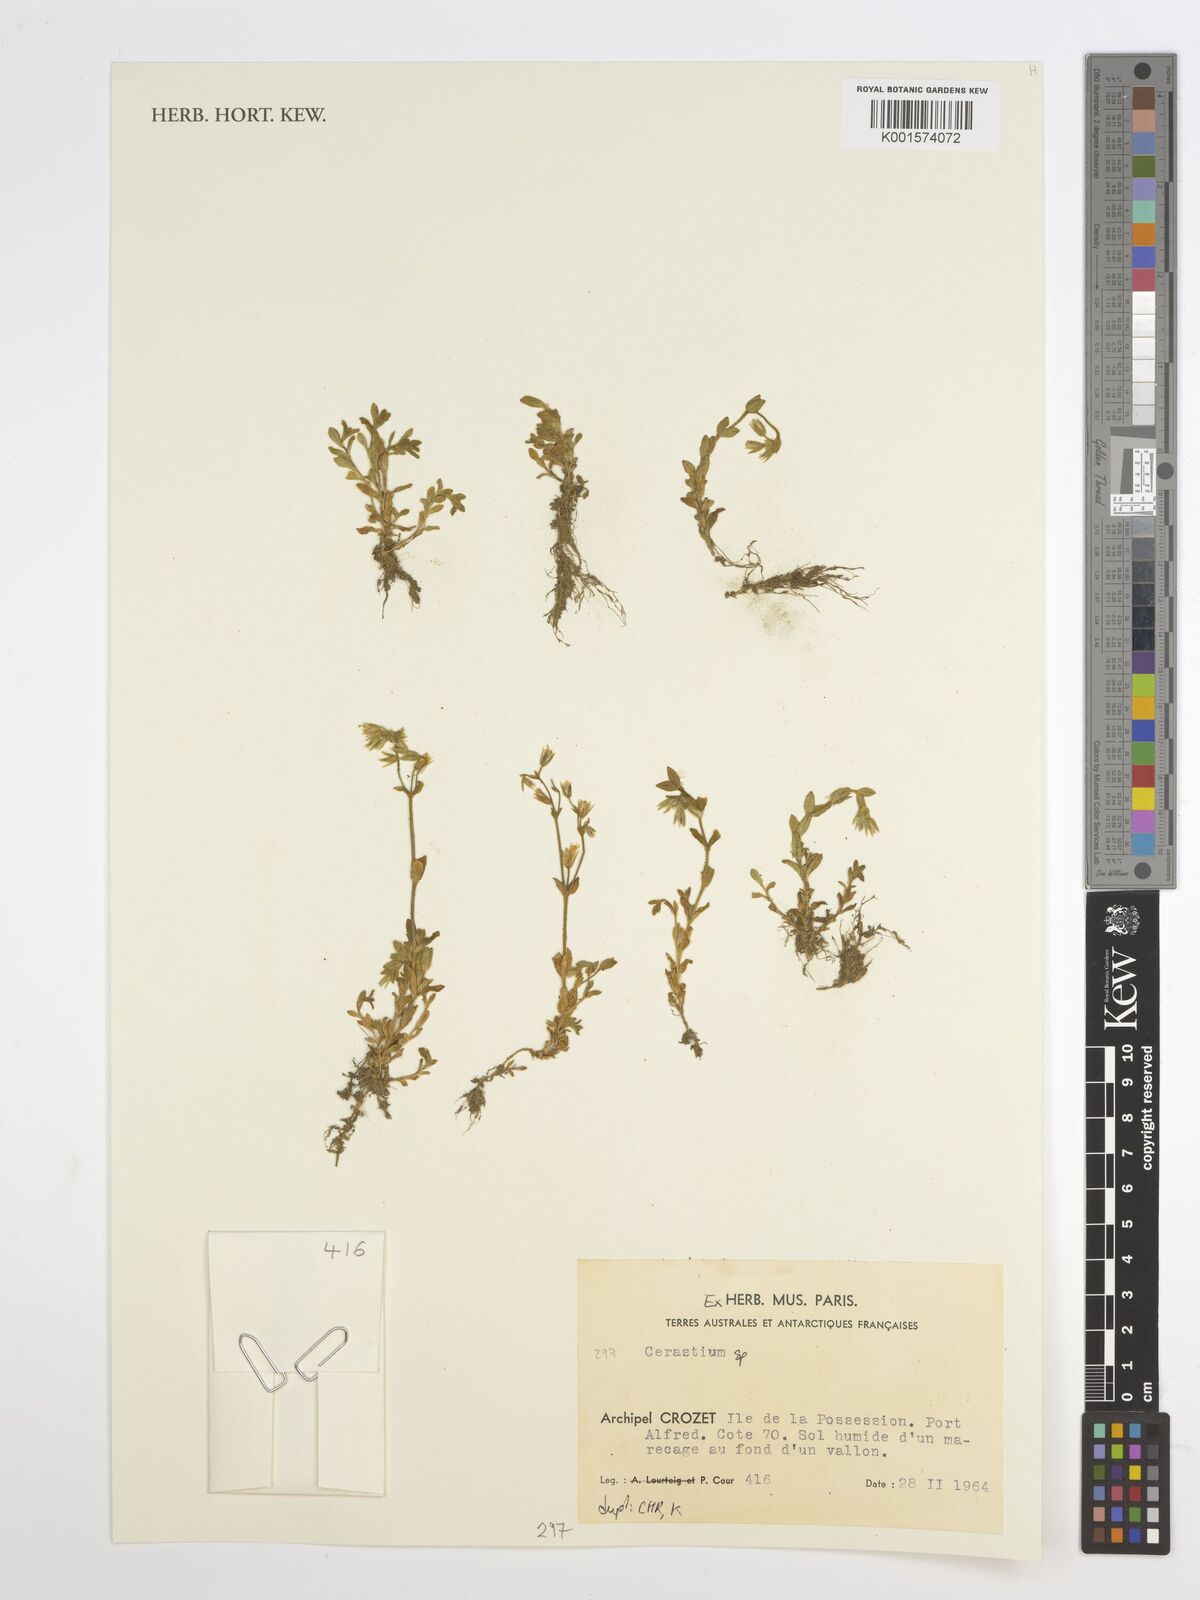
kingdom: Plantae
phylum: Tracheophyta
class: Magnoliopsida
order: Caryophyllales
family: Caryophyllaceae
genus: Cerastium
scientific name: Cerastium
